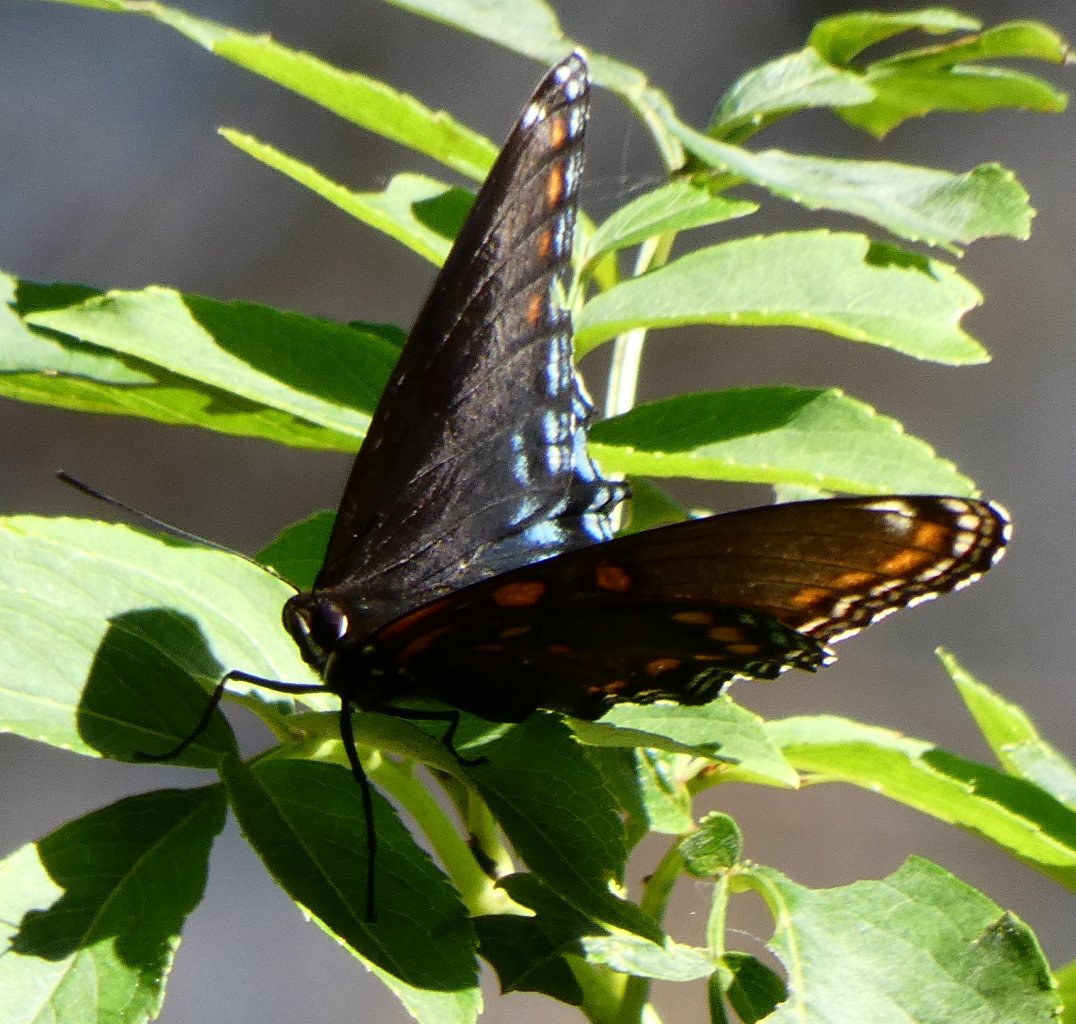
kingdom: Animalia
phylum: Arthropoda
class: Insecta
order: Lepidoptera
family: Nymphalidae
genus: Limenitis
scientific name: Limenitis astyanax
